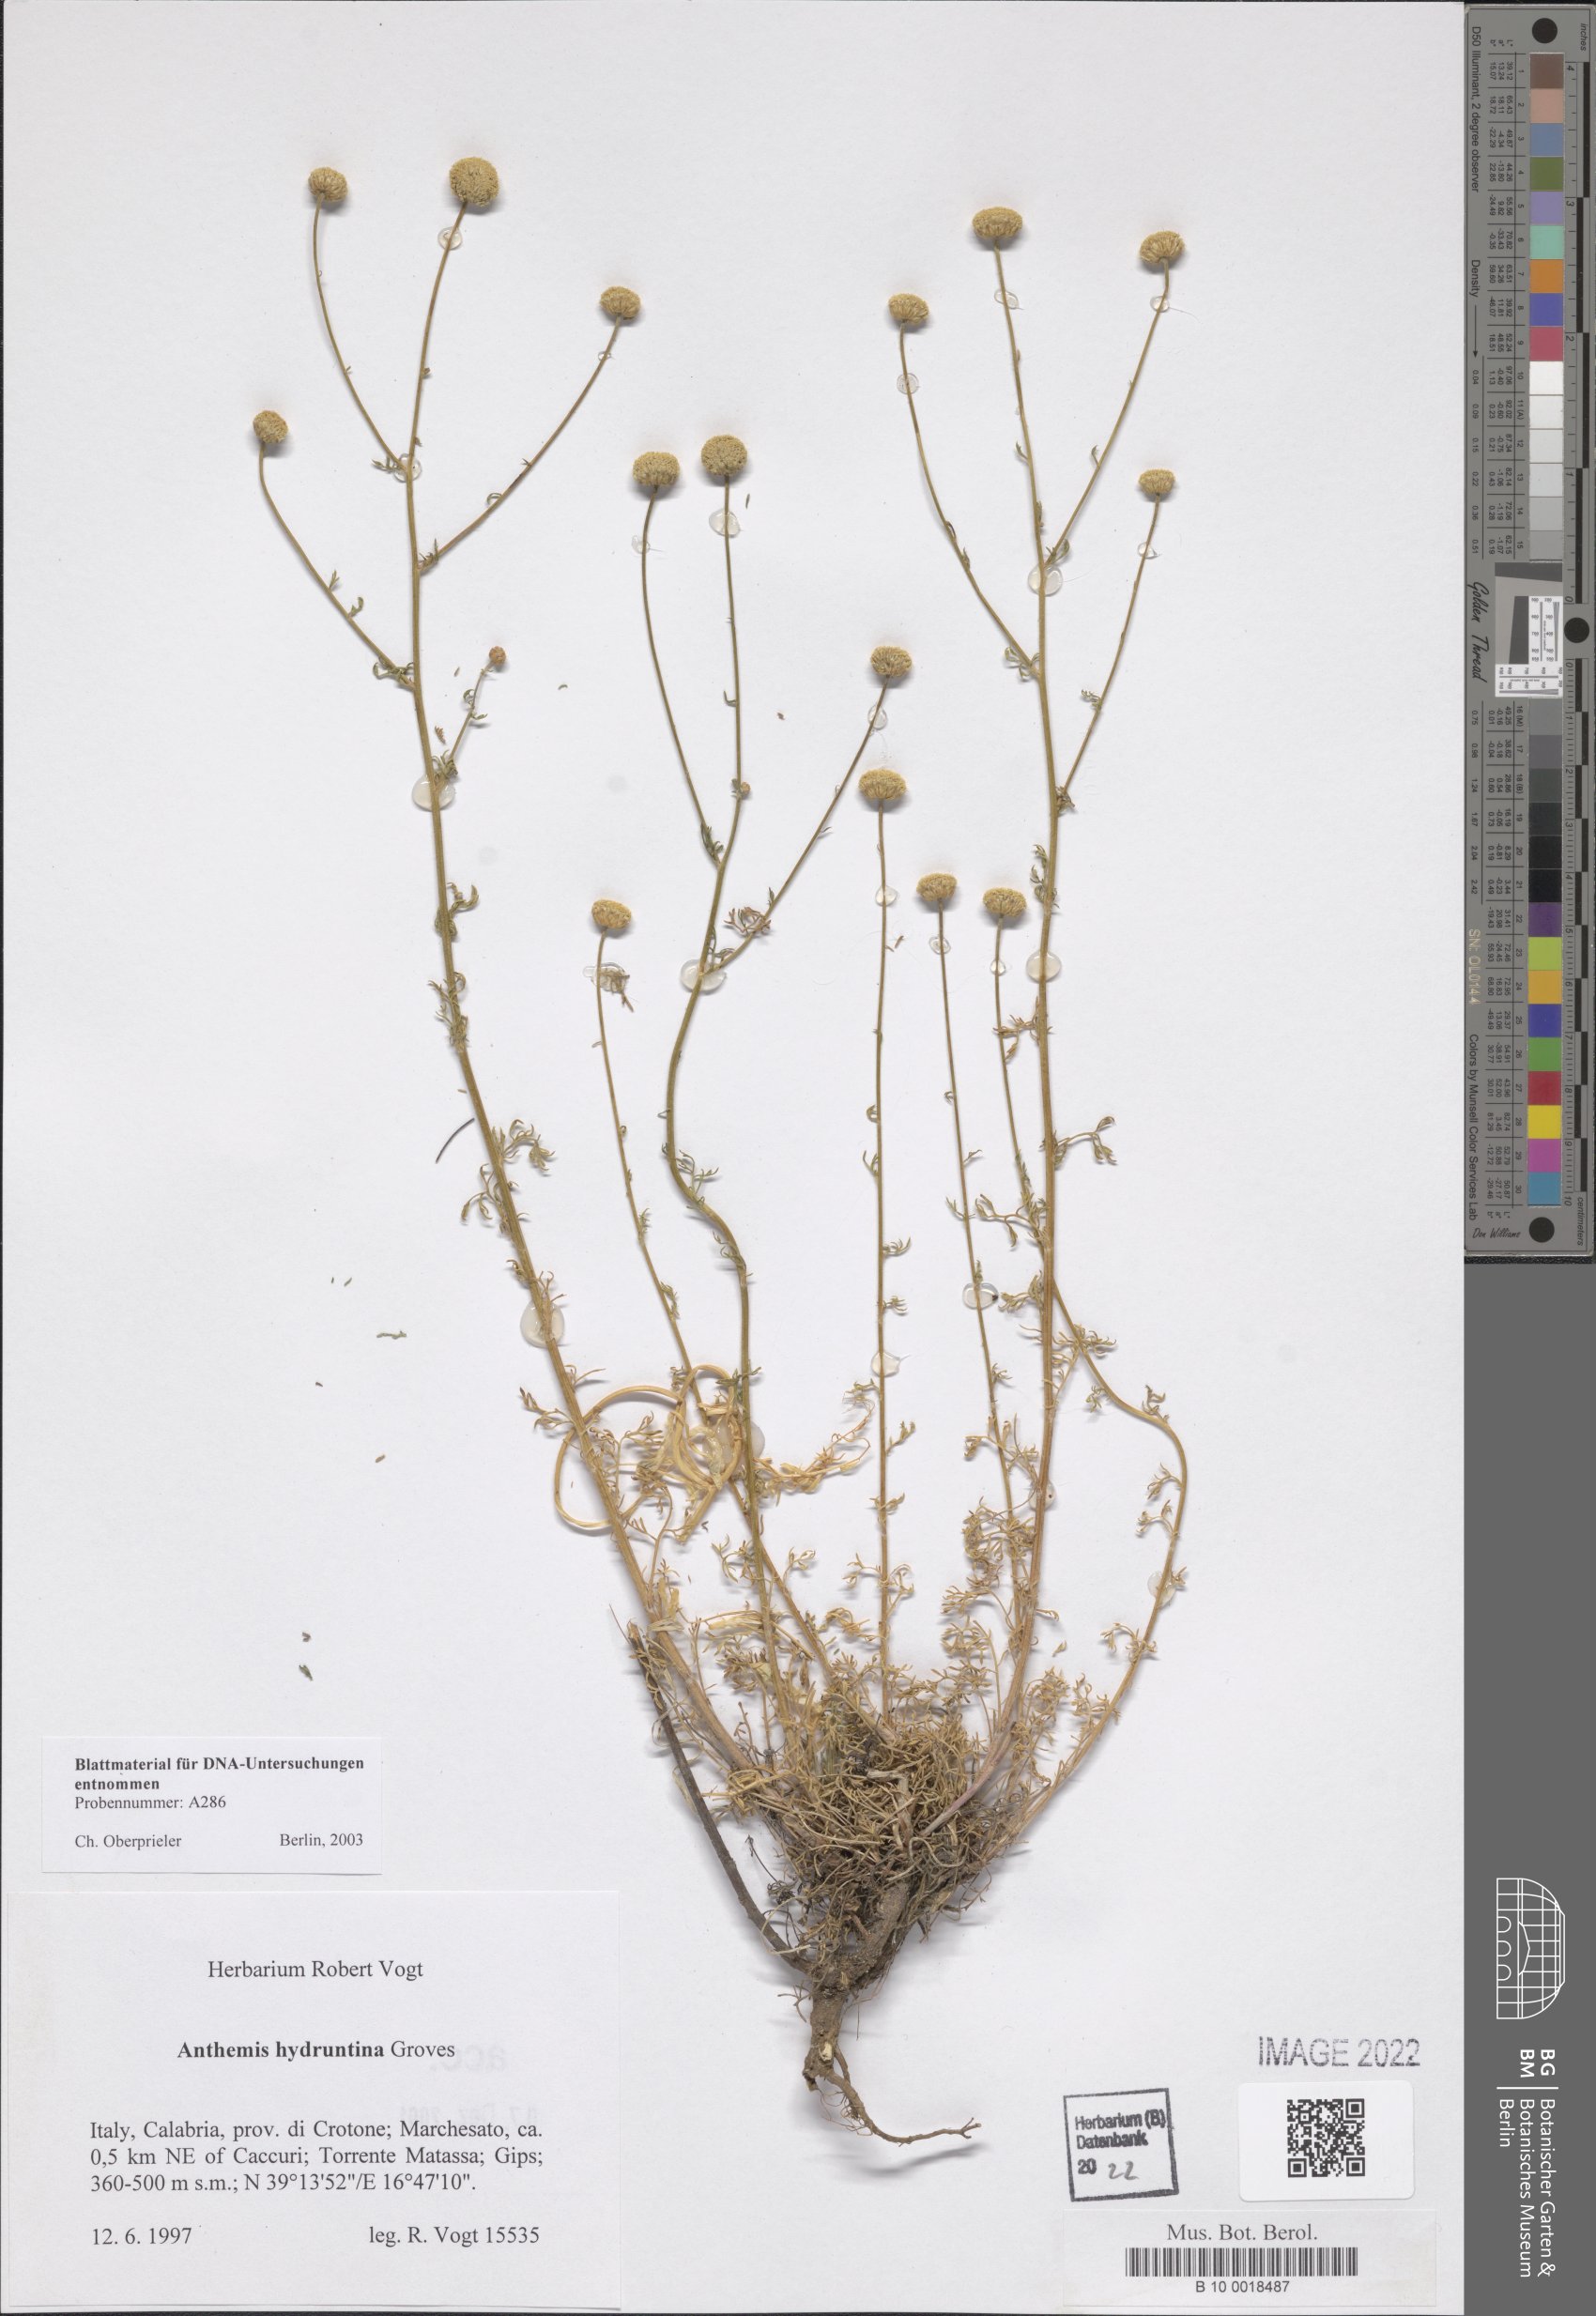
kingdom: Plantae
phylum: Tracheophyta
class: Magnoliopsida
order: Asterales
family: Asteraceae
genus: Anthemis
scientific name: Anthemis hydruntina
